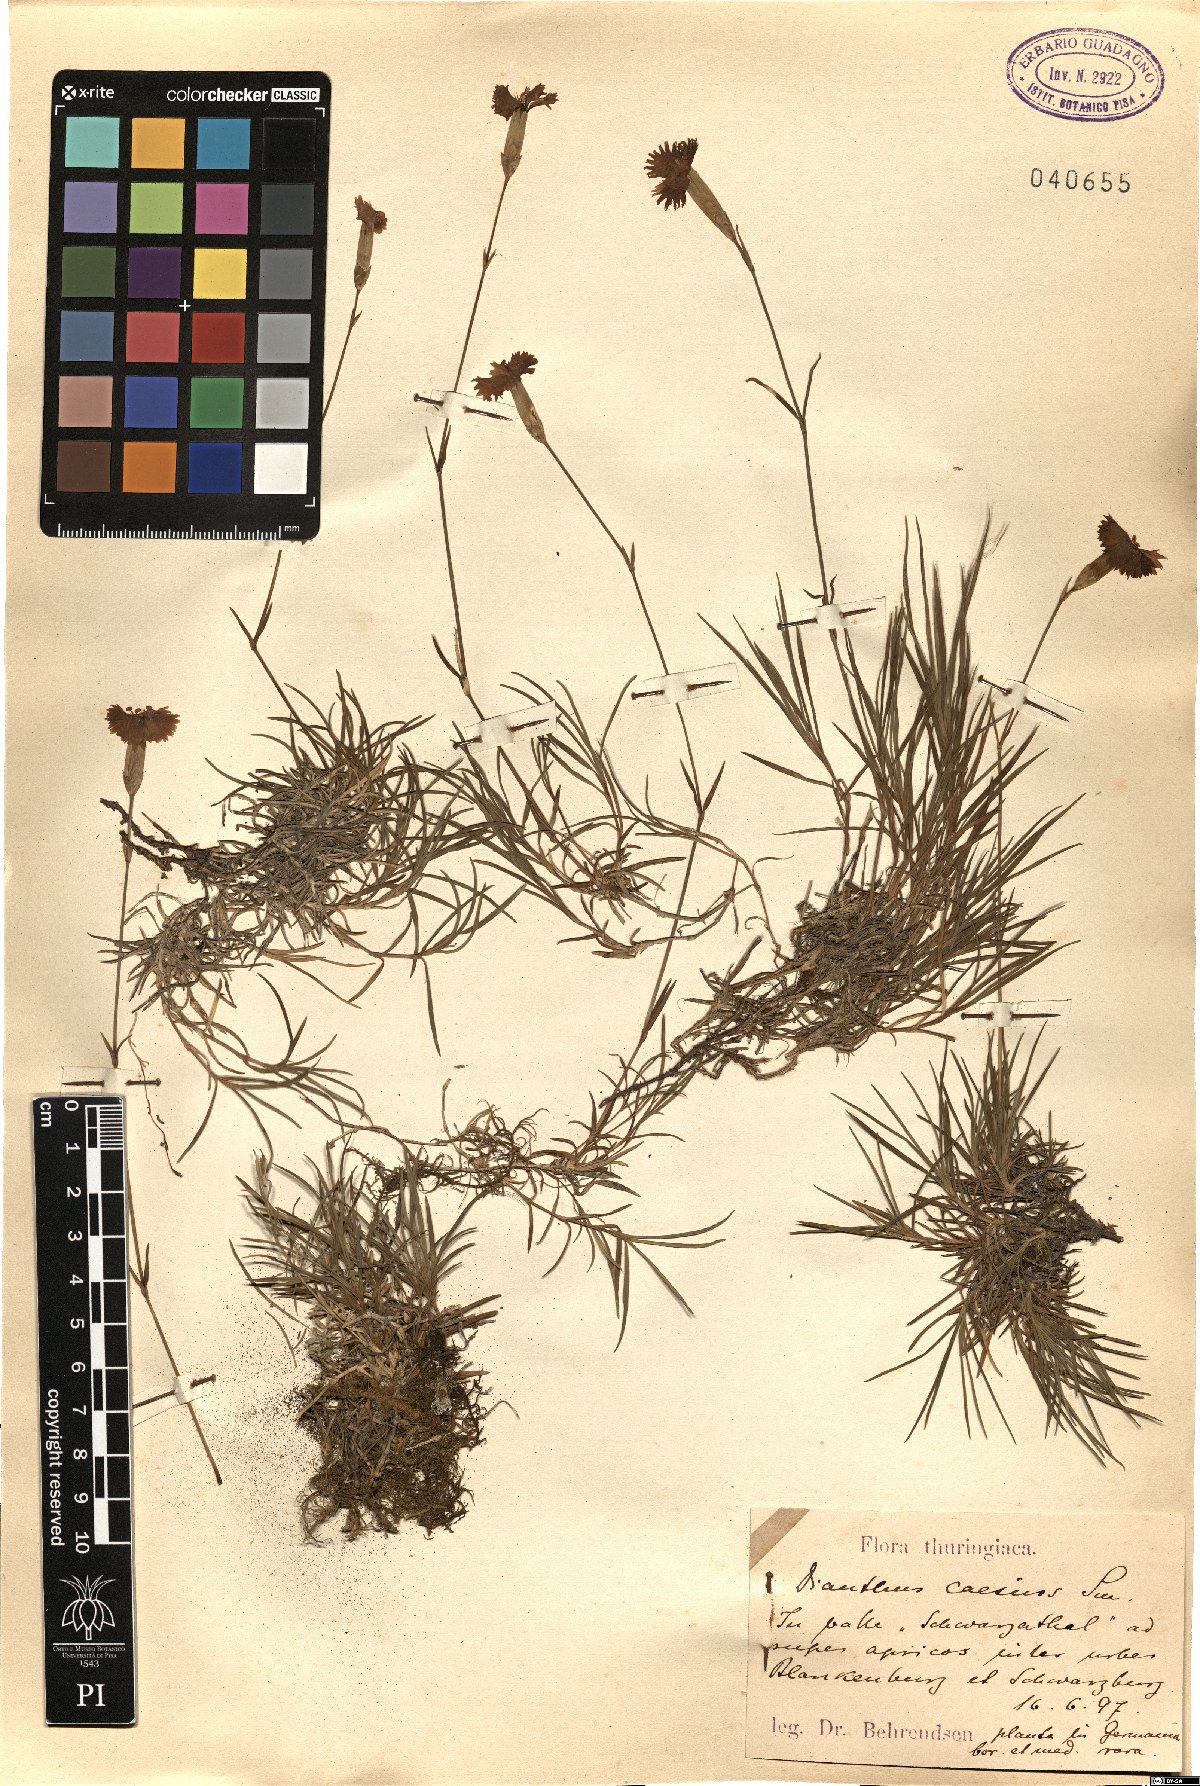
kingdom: Plantae
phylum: Tracheophyta
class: Magnoliopsida
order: Caryophyllales
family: Caryophyllaceae
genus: Dianthus
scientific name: Dianthus gratianopolitanus
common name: Cheddar pink
